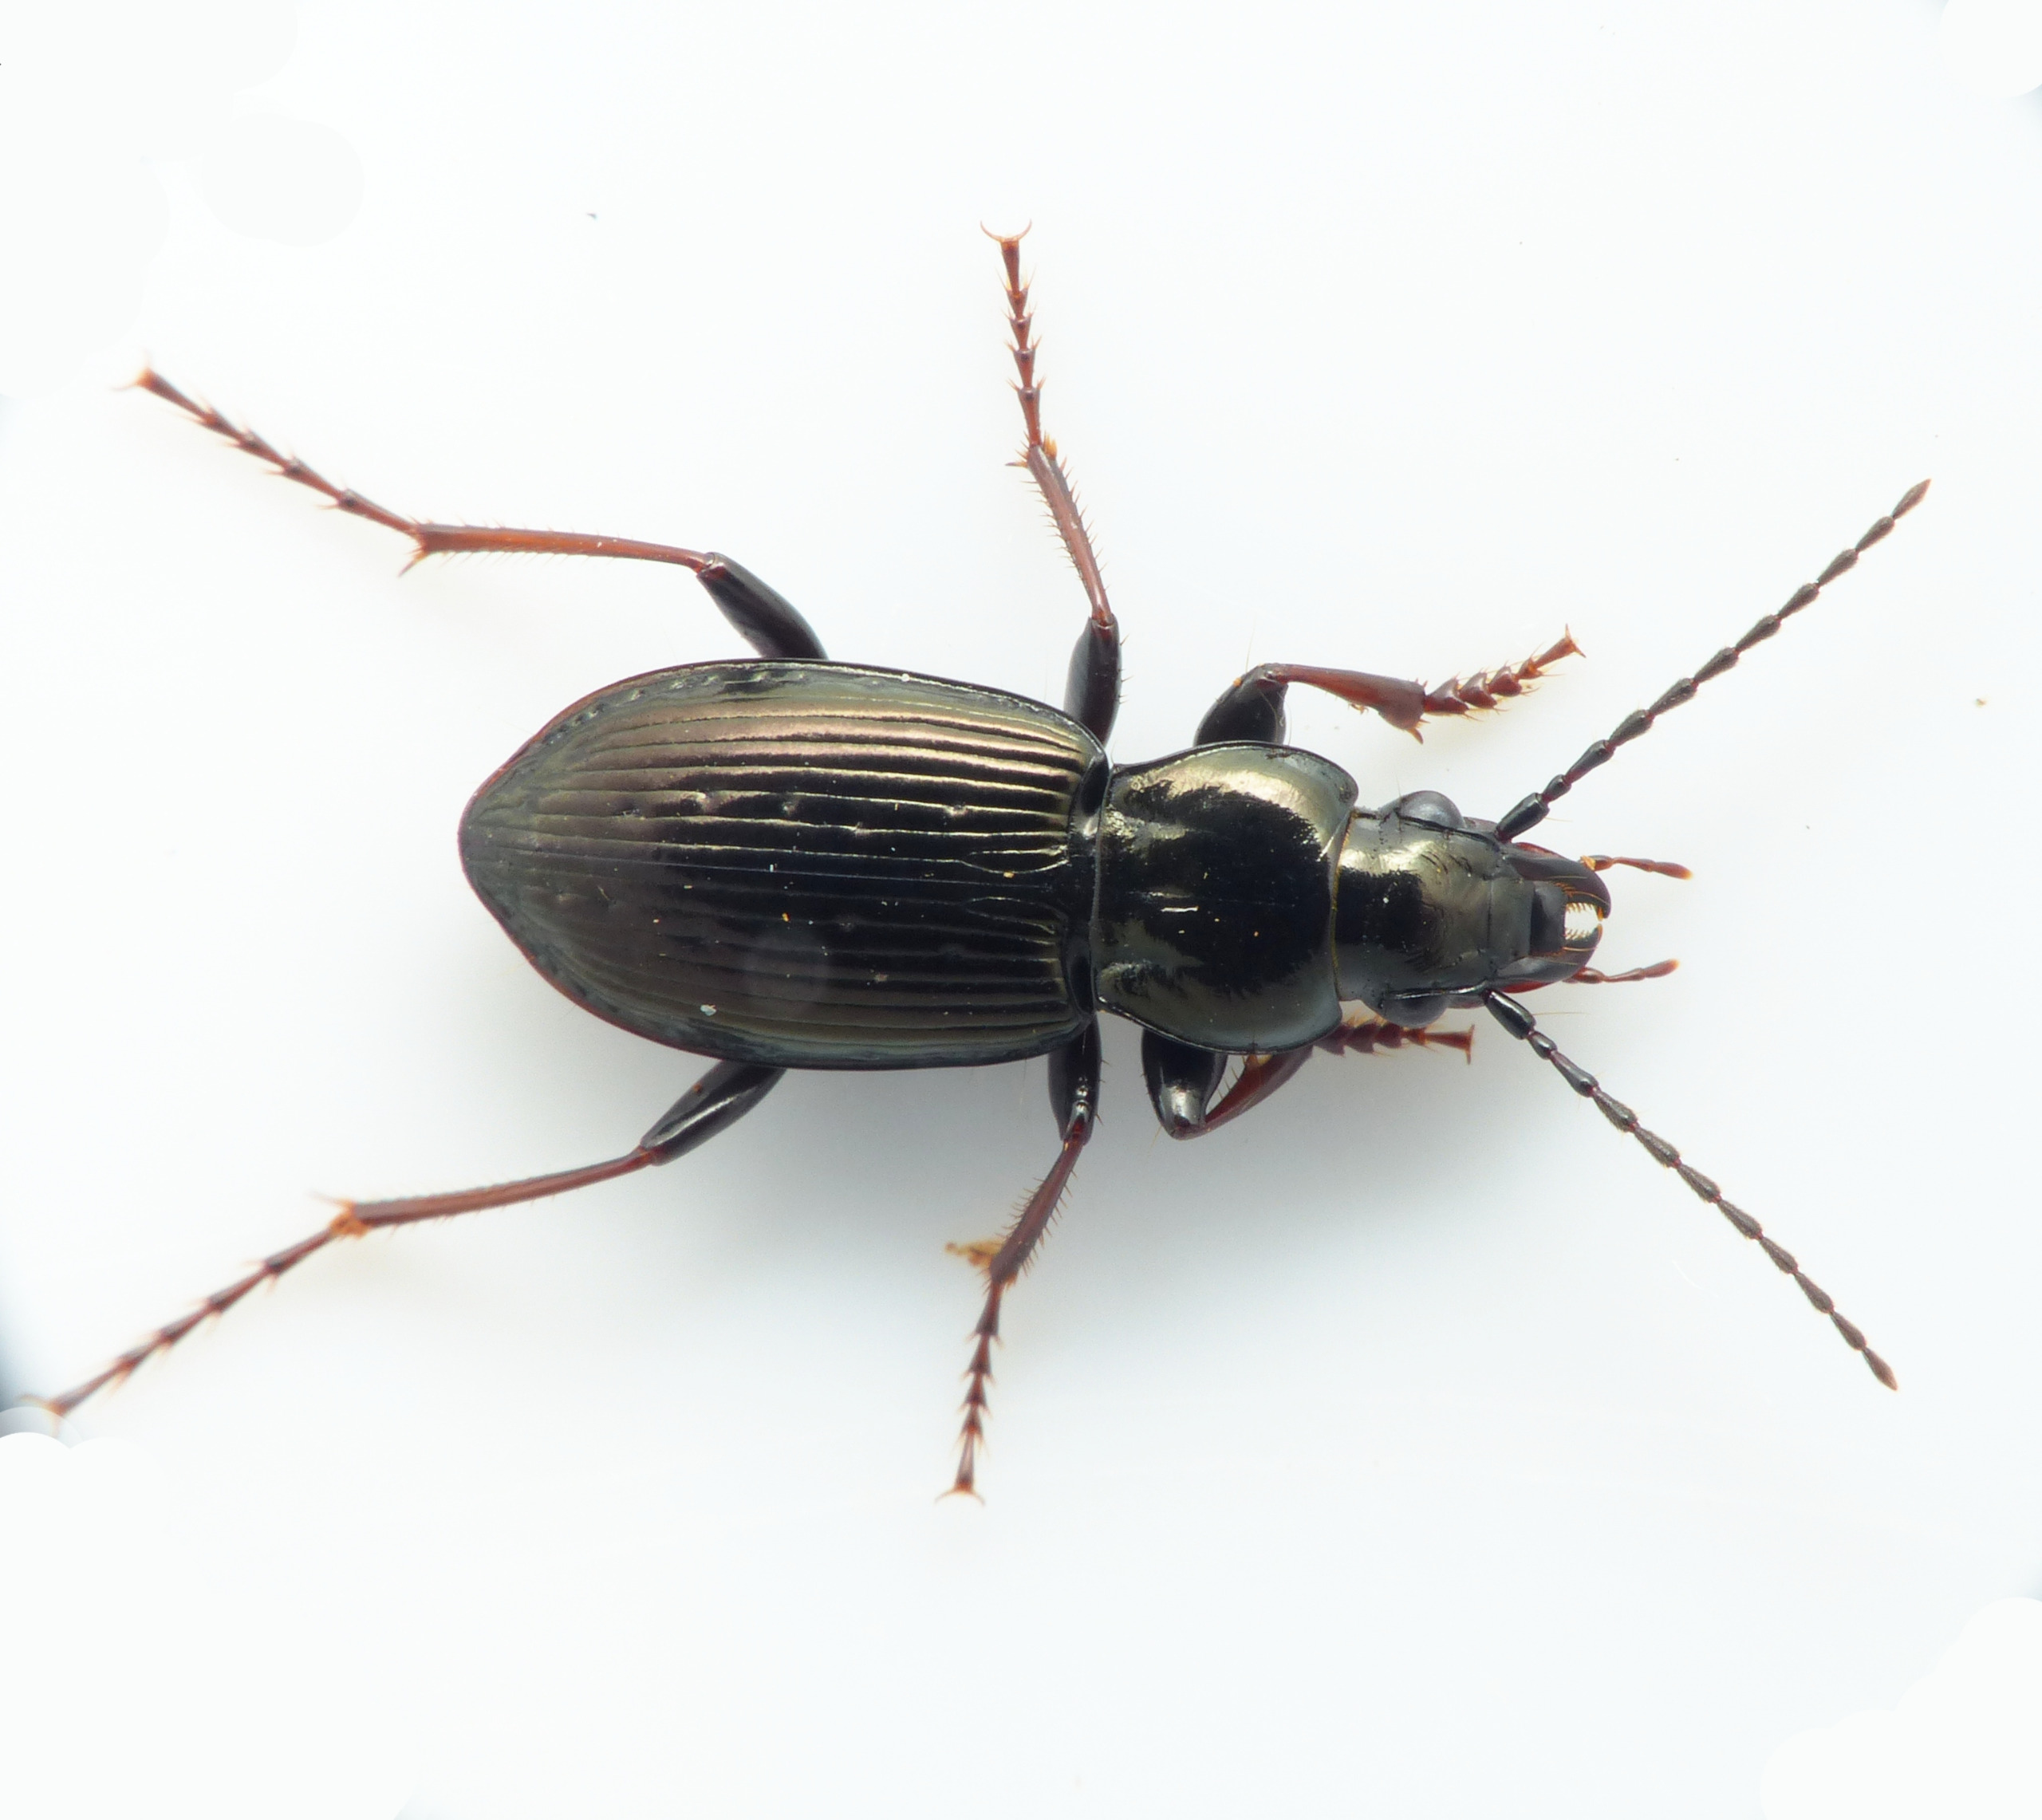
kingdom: Animalia
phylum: Arthropoda
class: Insecta
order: Coleoptera
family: Carabidae
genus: Pterostichus
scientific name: Pterostichus oblongopunctatus
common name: Bronzejordløber
